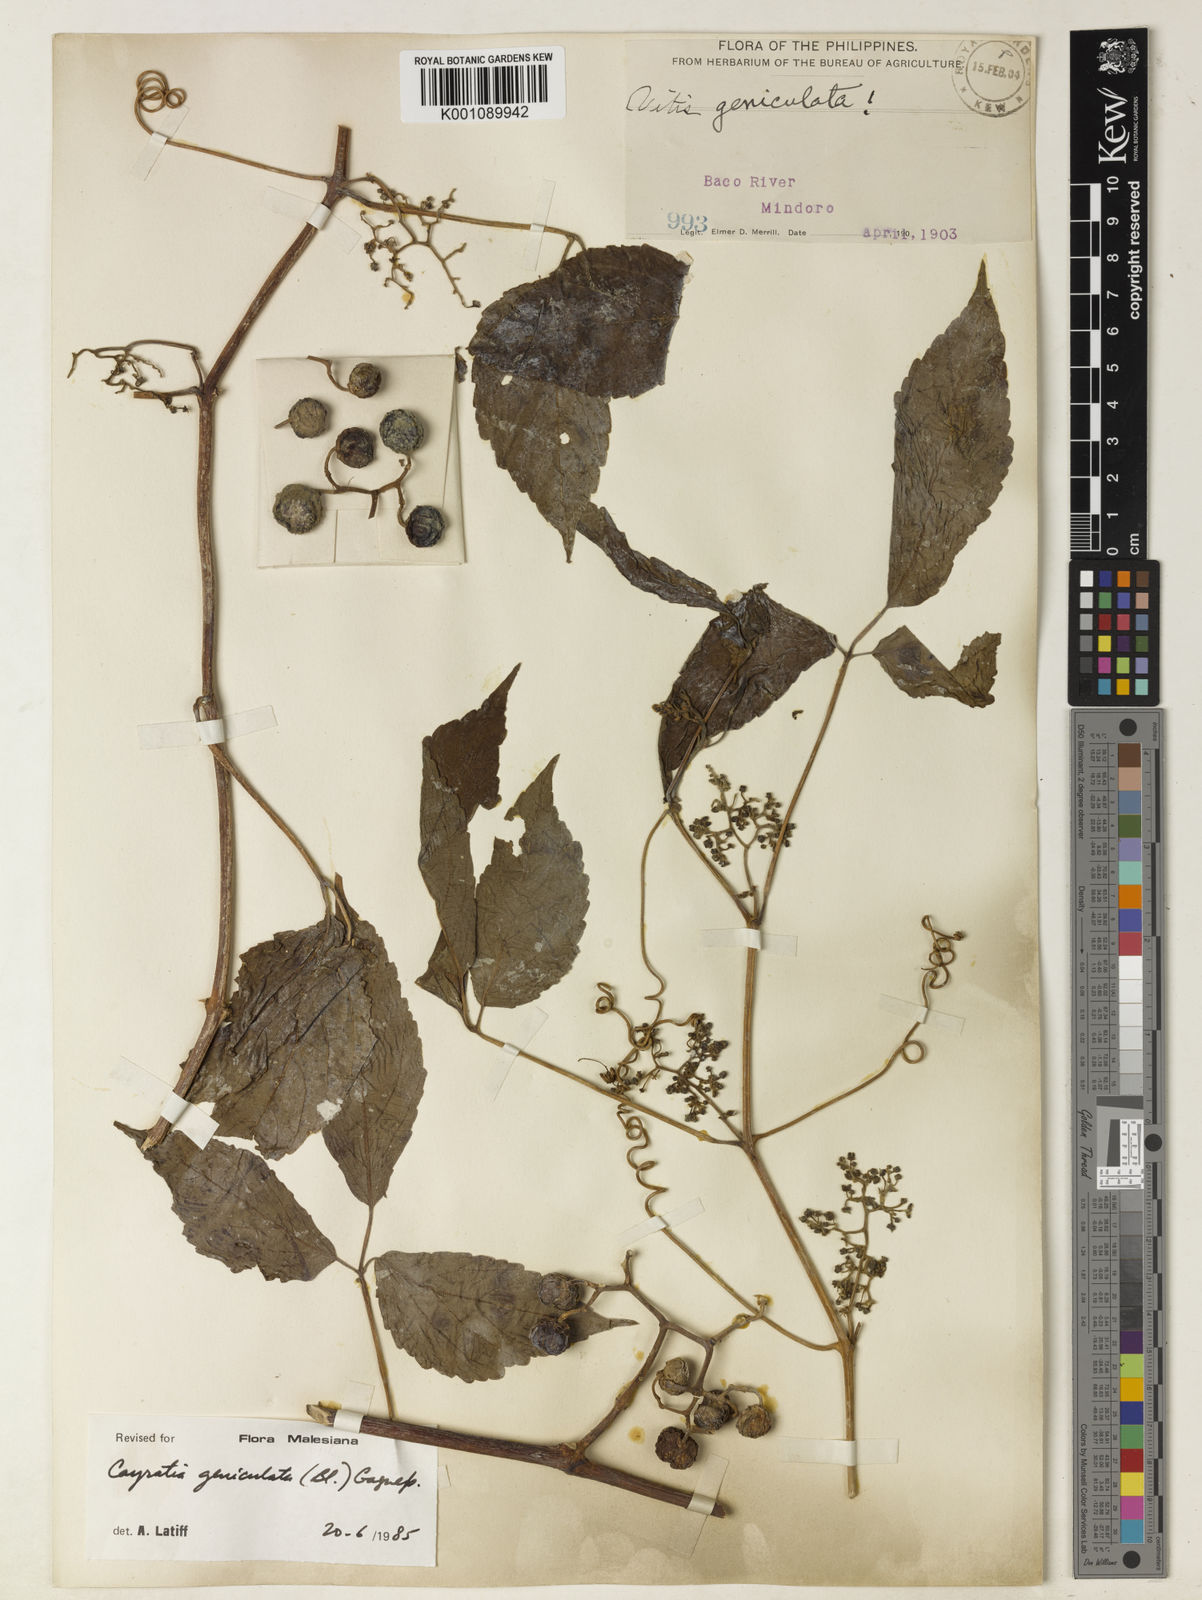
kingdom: Plantae
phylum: Tracheophyta
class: Magnoliopsida
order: Vitales
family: Vitaceae
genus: Cayratia
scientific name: Cayratia mollissima
